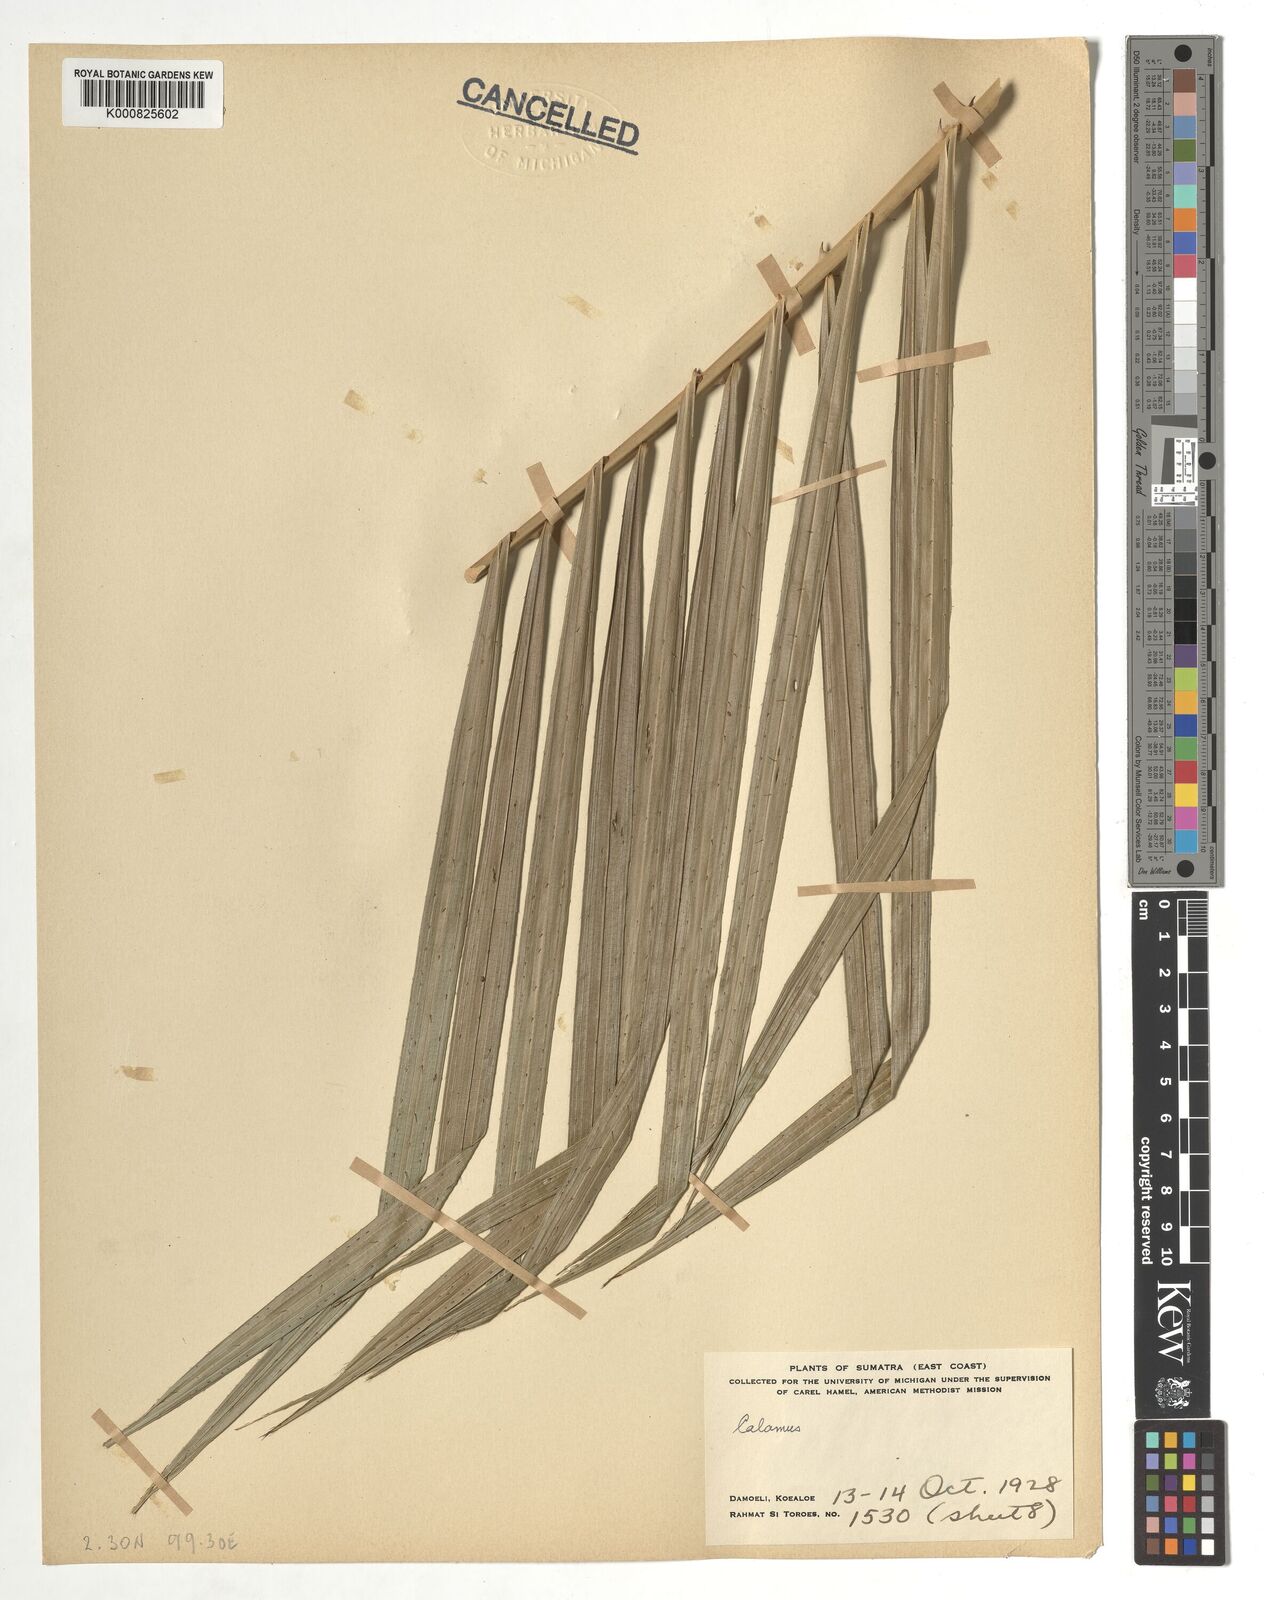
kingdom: Plantae
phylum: Tracheophyta
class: Liliopsida
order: Arecales
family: Arecaceae
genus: Calamus
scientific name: Calamus
